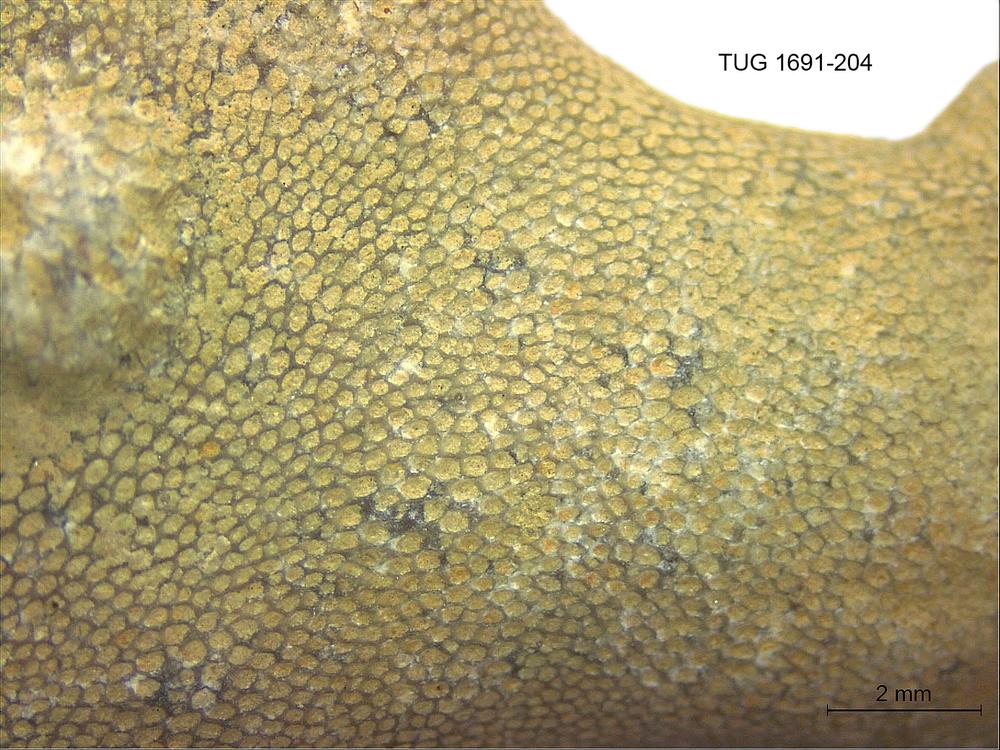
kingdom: Animalia
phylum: Bryozoa
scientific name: Bryozoa
